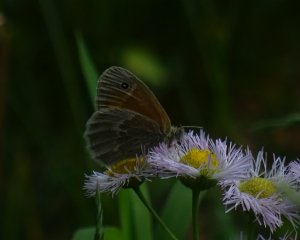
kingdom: Animalia
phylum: Arthropoda
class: Insecta
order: Lepidoptera
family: Nymphalidae
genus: Coenonympha
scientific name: Coenonympha tullia
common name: Large Heath
